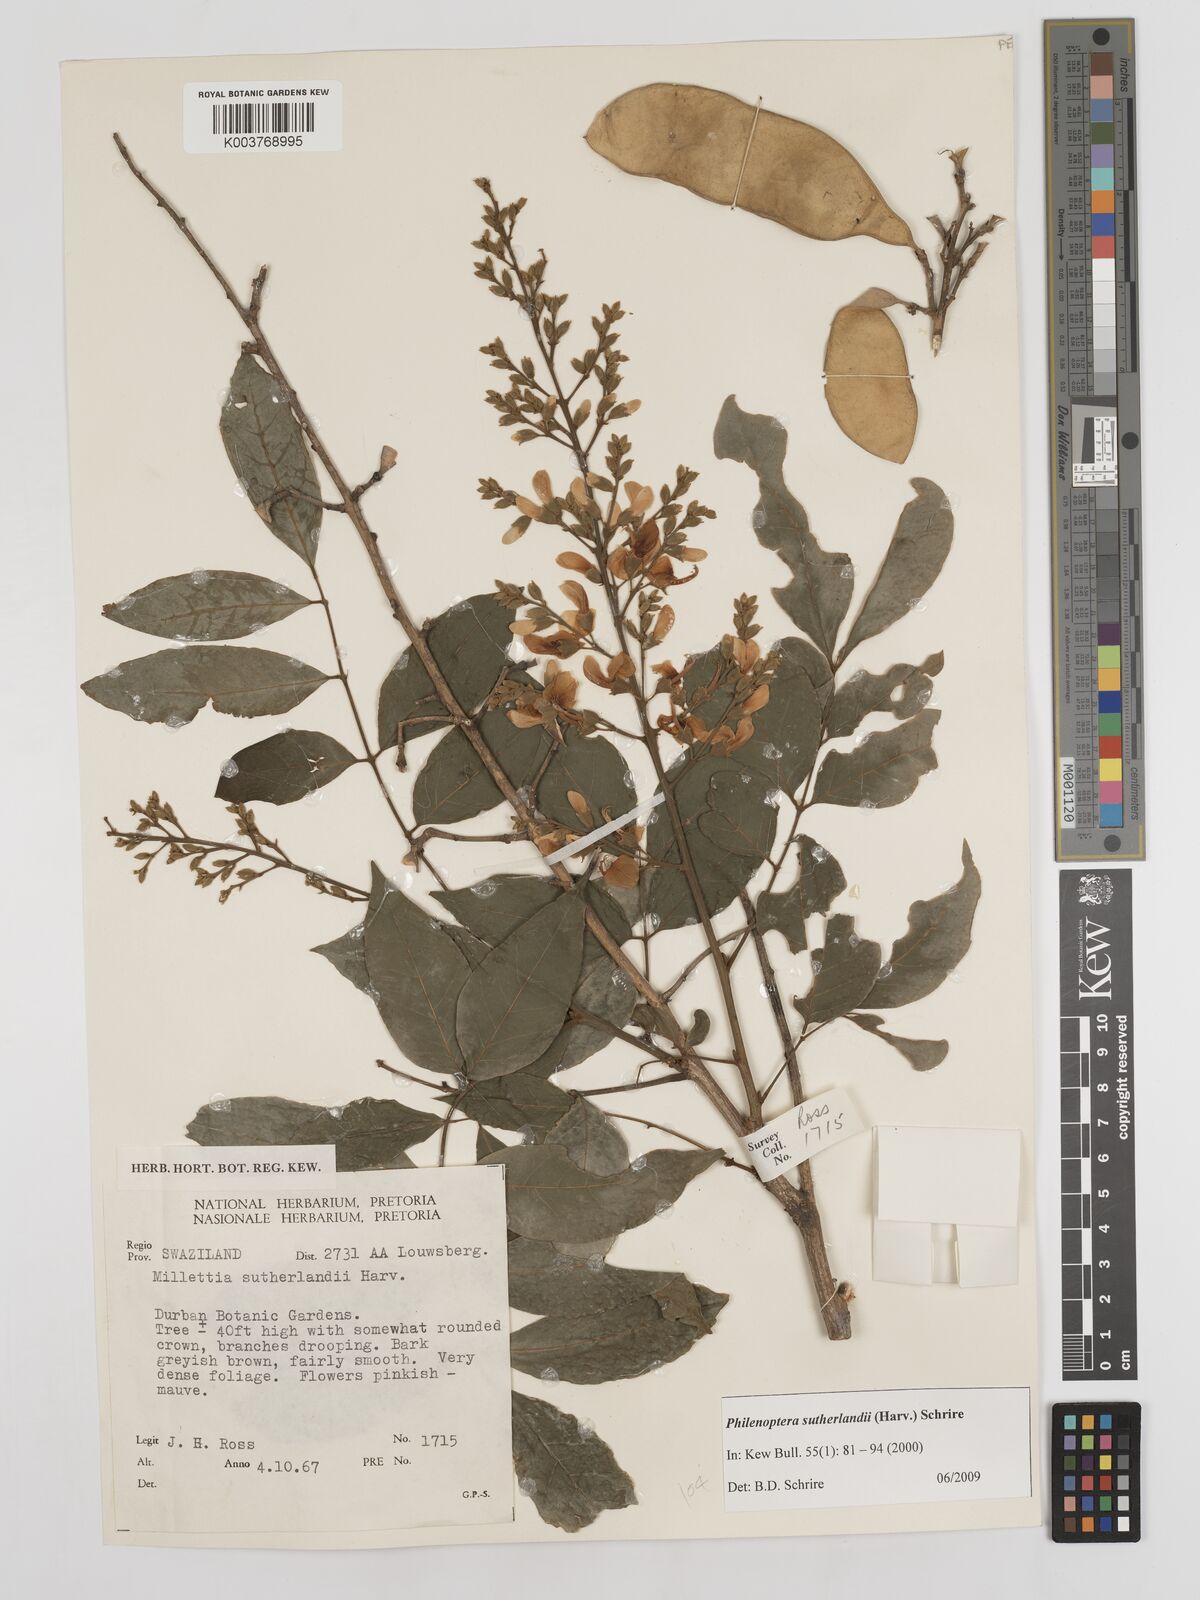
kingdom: Plantae
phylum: Tracheophyta
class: Magnoliopsida
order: Fabales
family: Fabaceae
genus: Philenoptera
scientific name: Philenoptera sutherlandii
